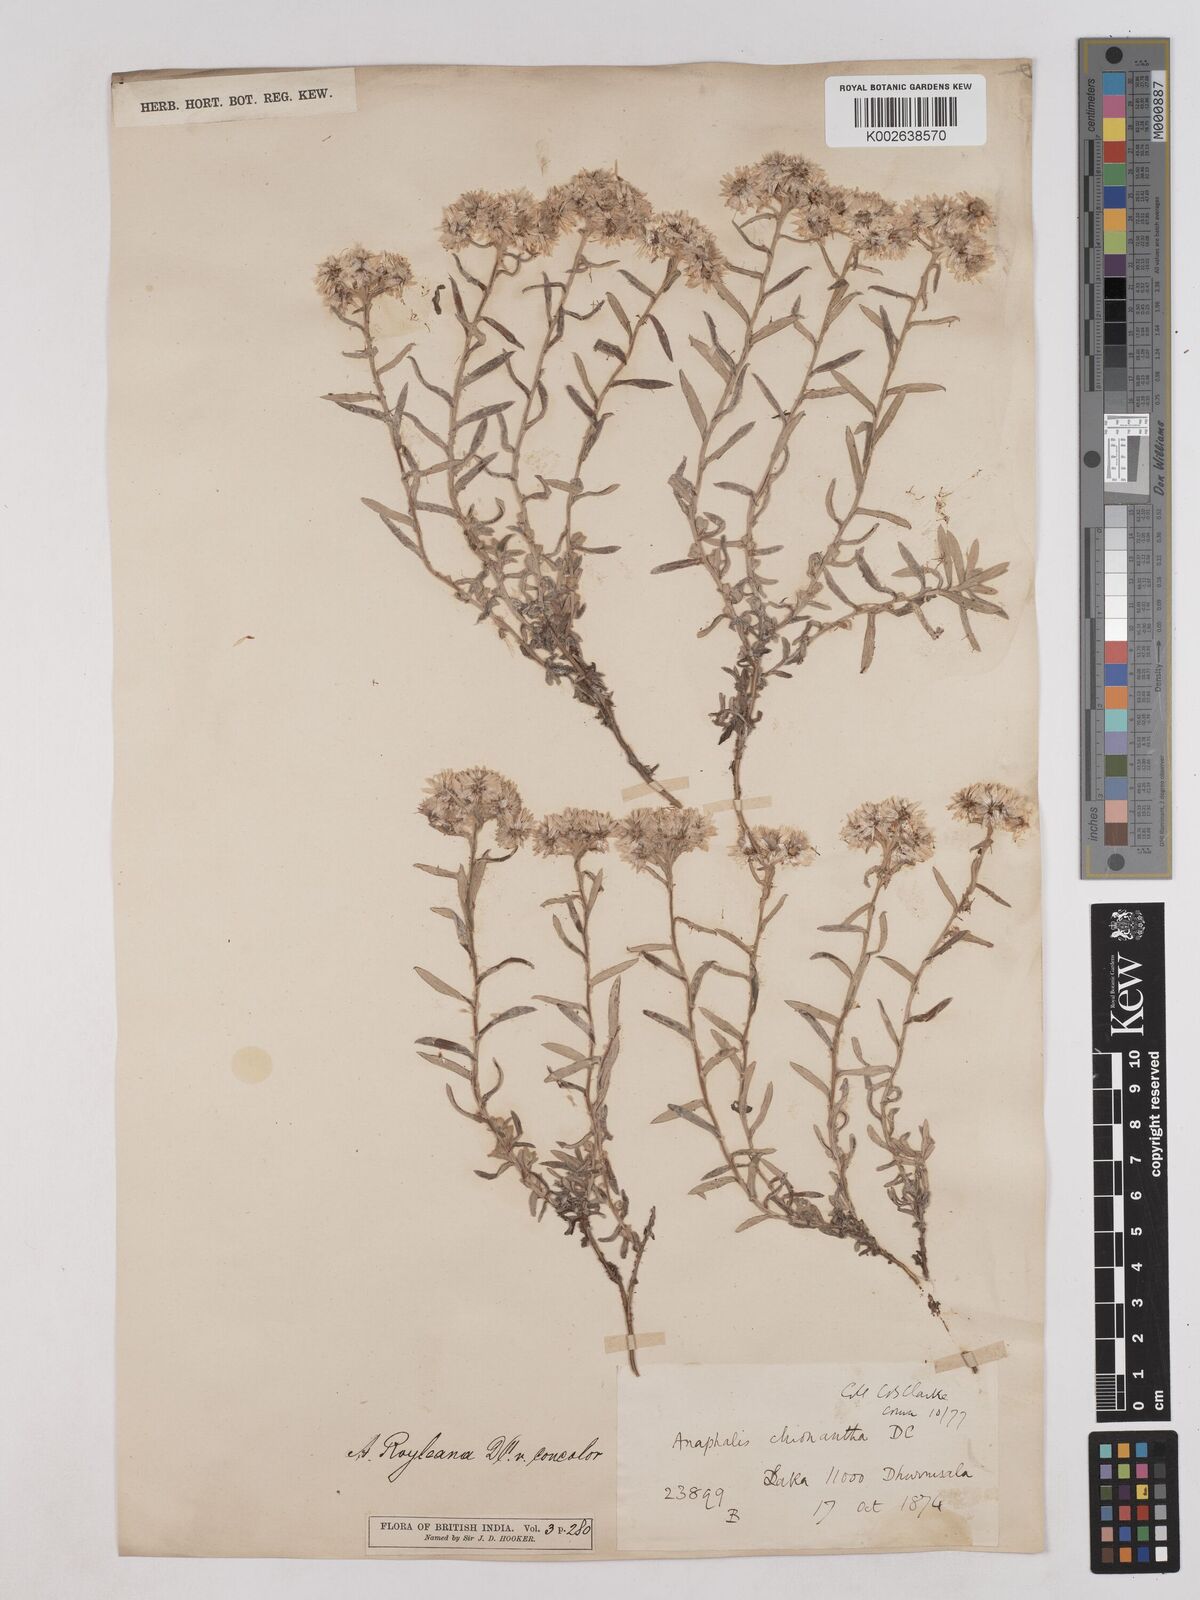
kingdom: Plantae
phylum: Tracheophyta
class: Magnoliopsida
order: Asterales
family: Asteraceae
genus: Anaphalis
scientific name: Anaphalis royleana
